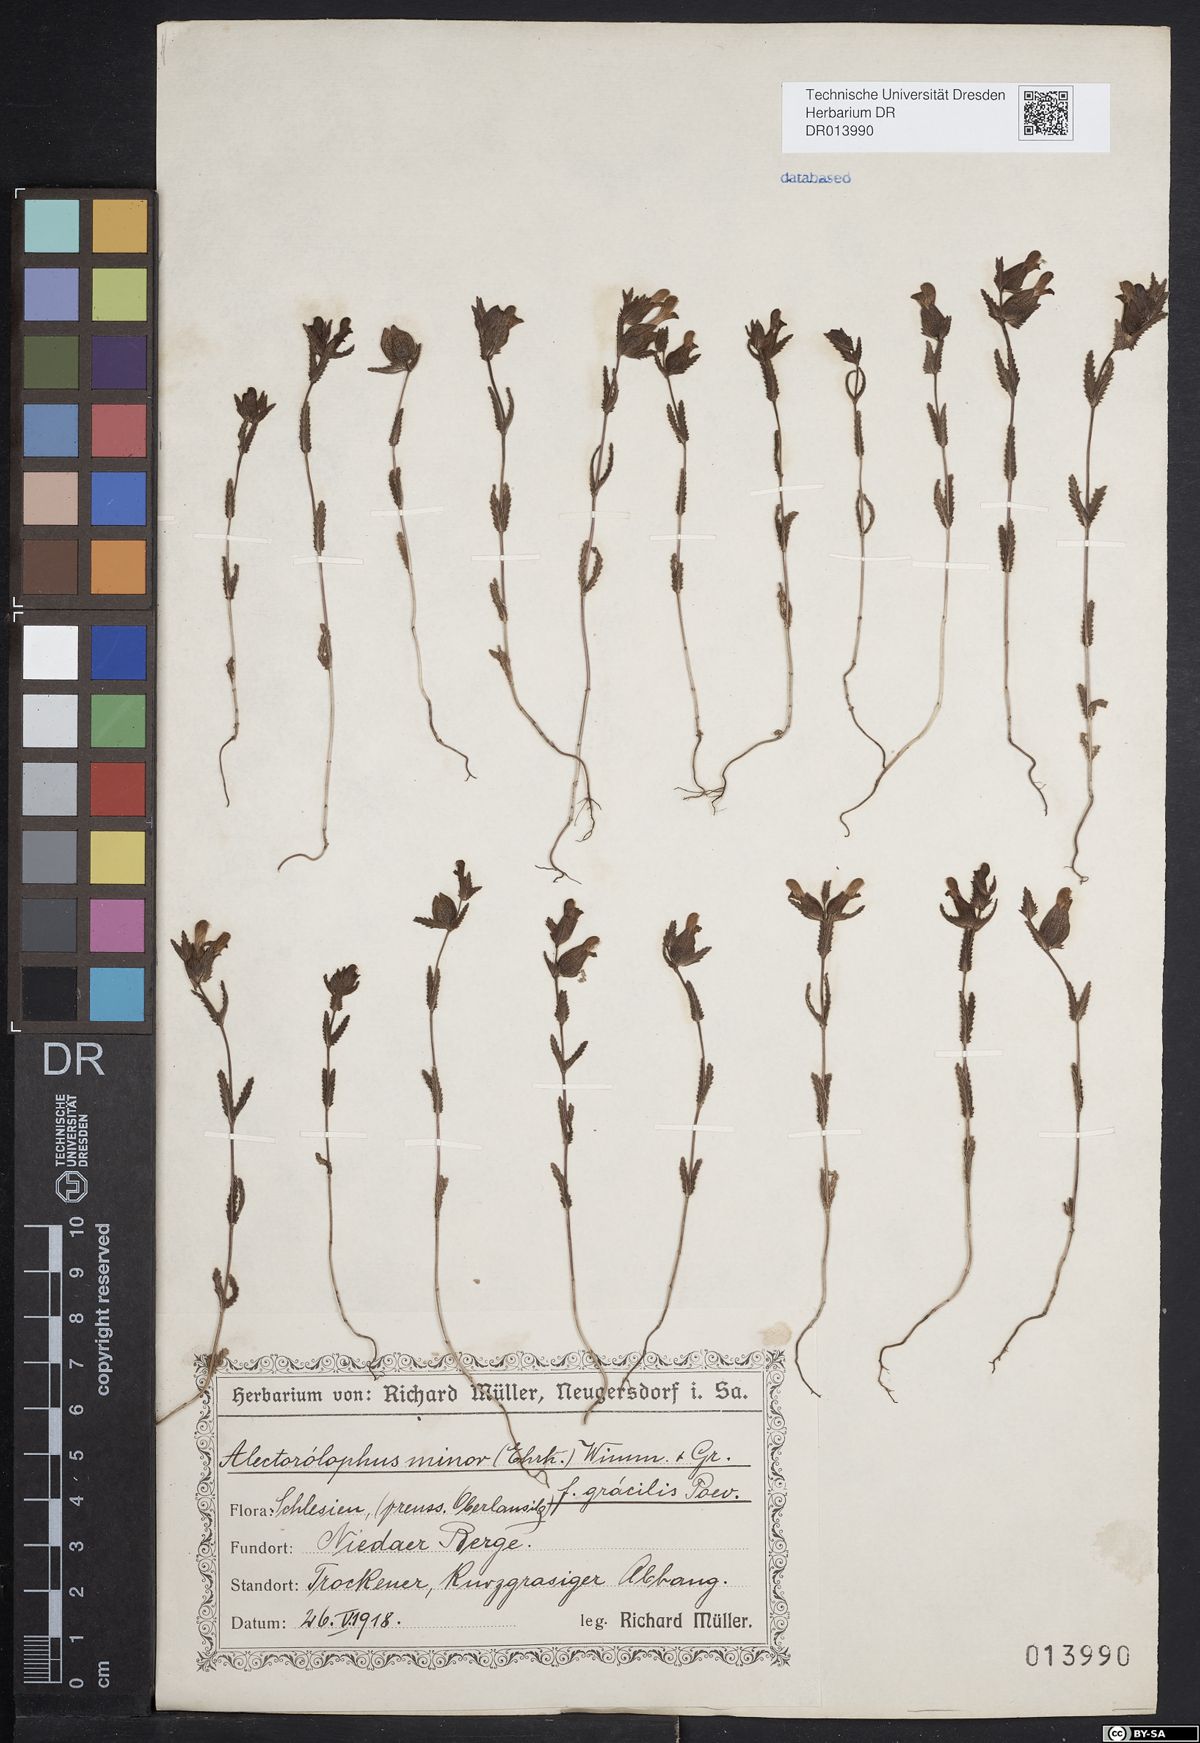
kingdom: Plantae
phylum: Tracheophyta
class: Magnoliopsida
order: Lamiales
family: Orobanchaceae
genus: Rhinanthus
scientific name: Rhinanthus minor
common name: Yellow-rattle
